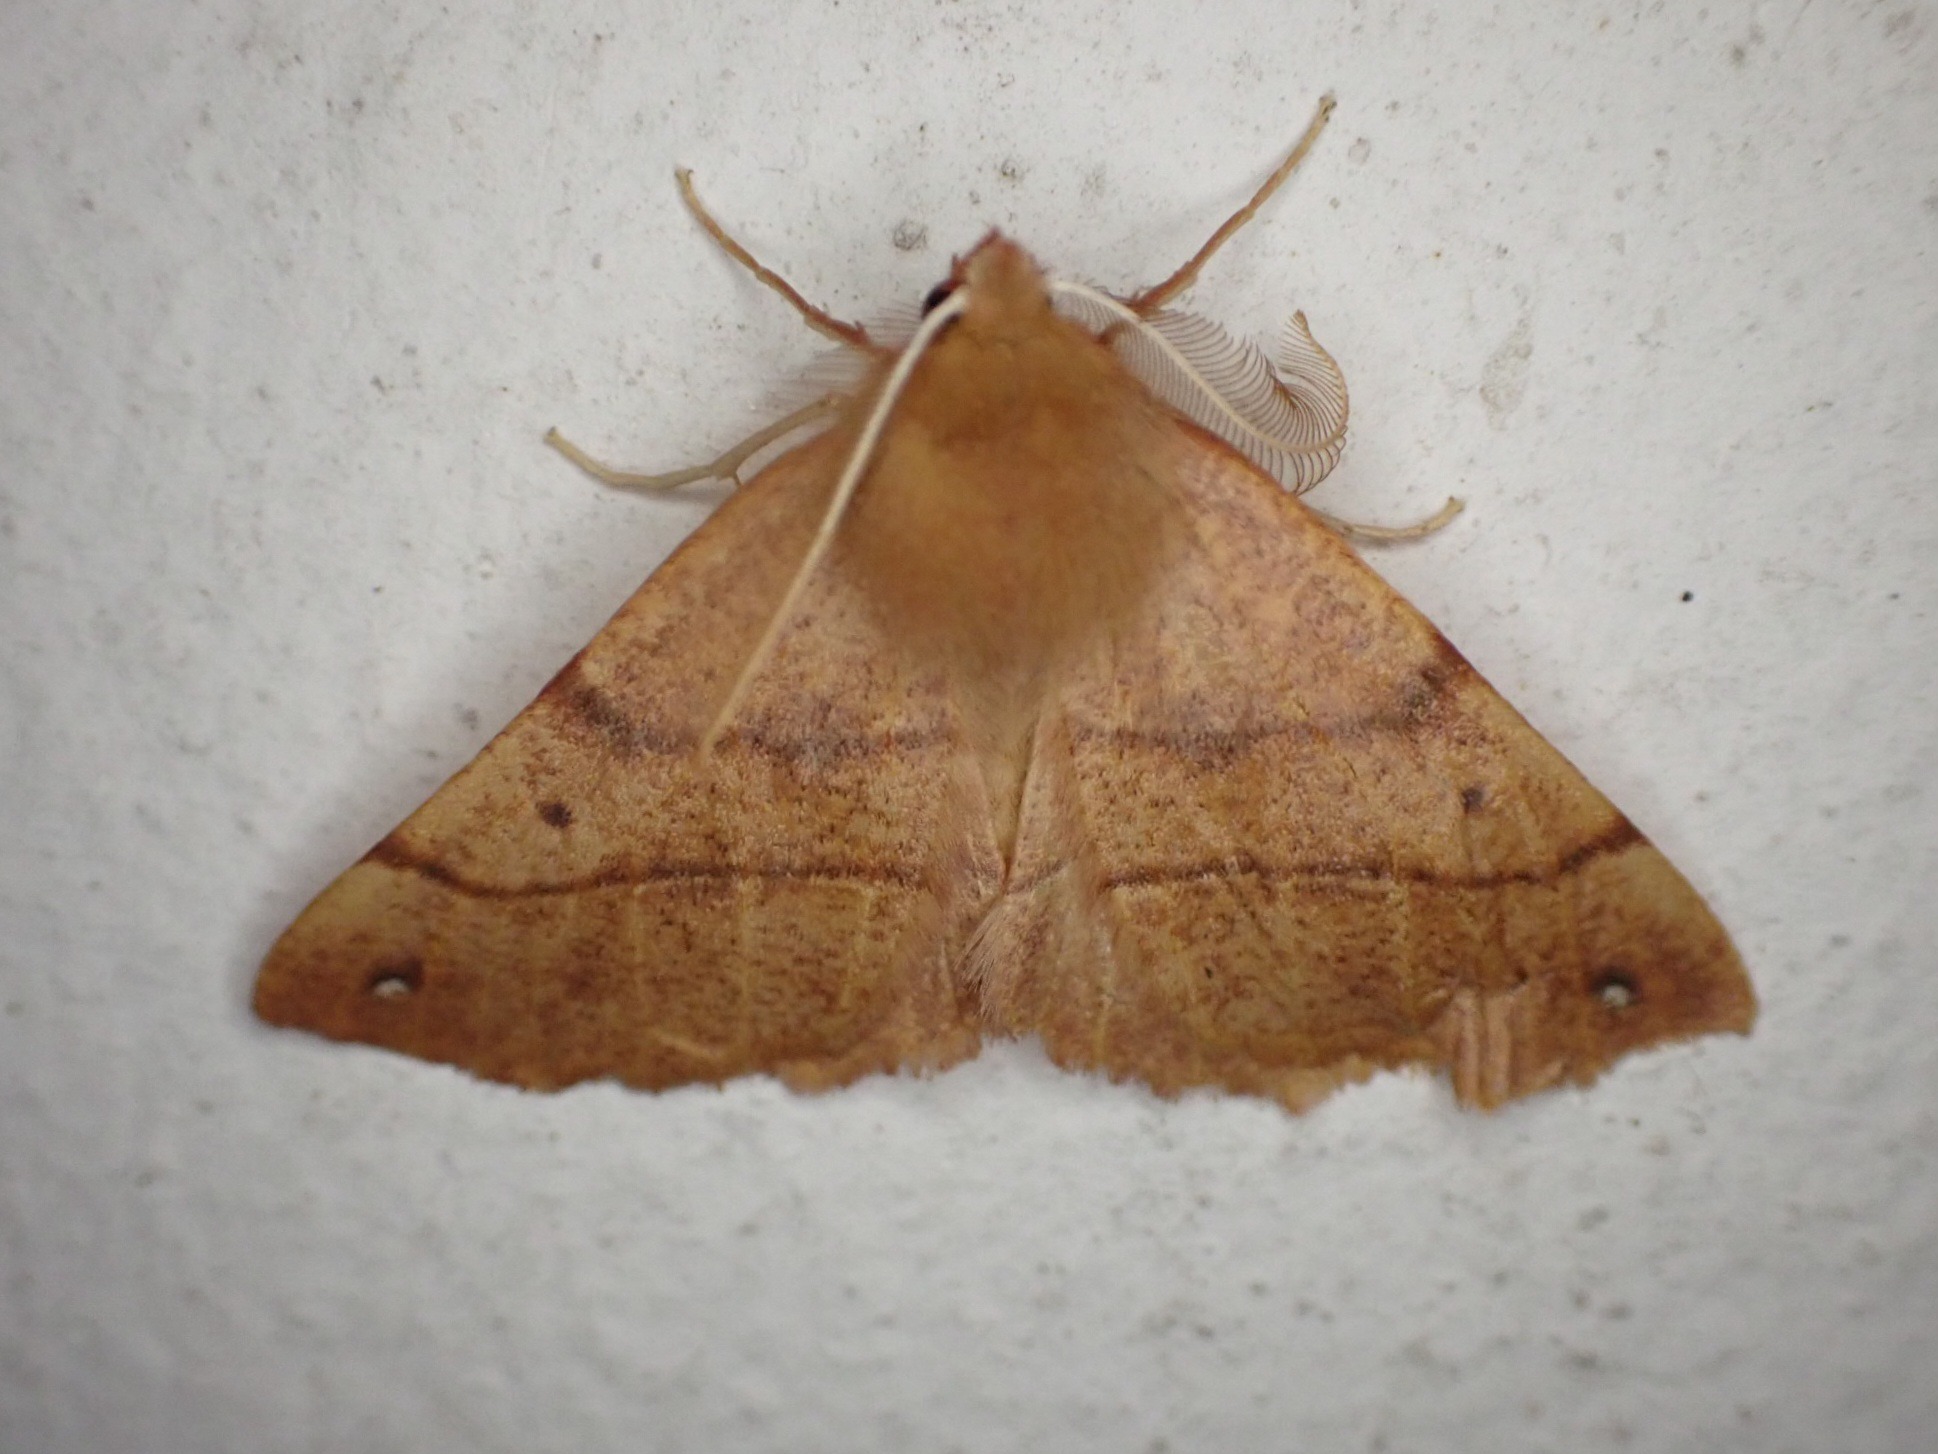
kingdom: Animalia
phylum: Arthropoda
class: Insecta
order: Lepidoptera
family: Geometridae
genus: Colotois
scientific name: Colotois pennaria
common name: Løvfaldsmåler
